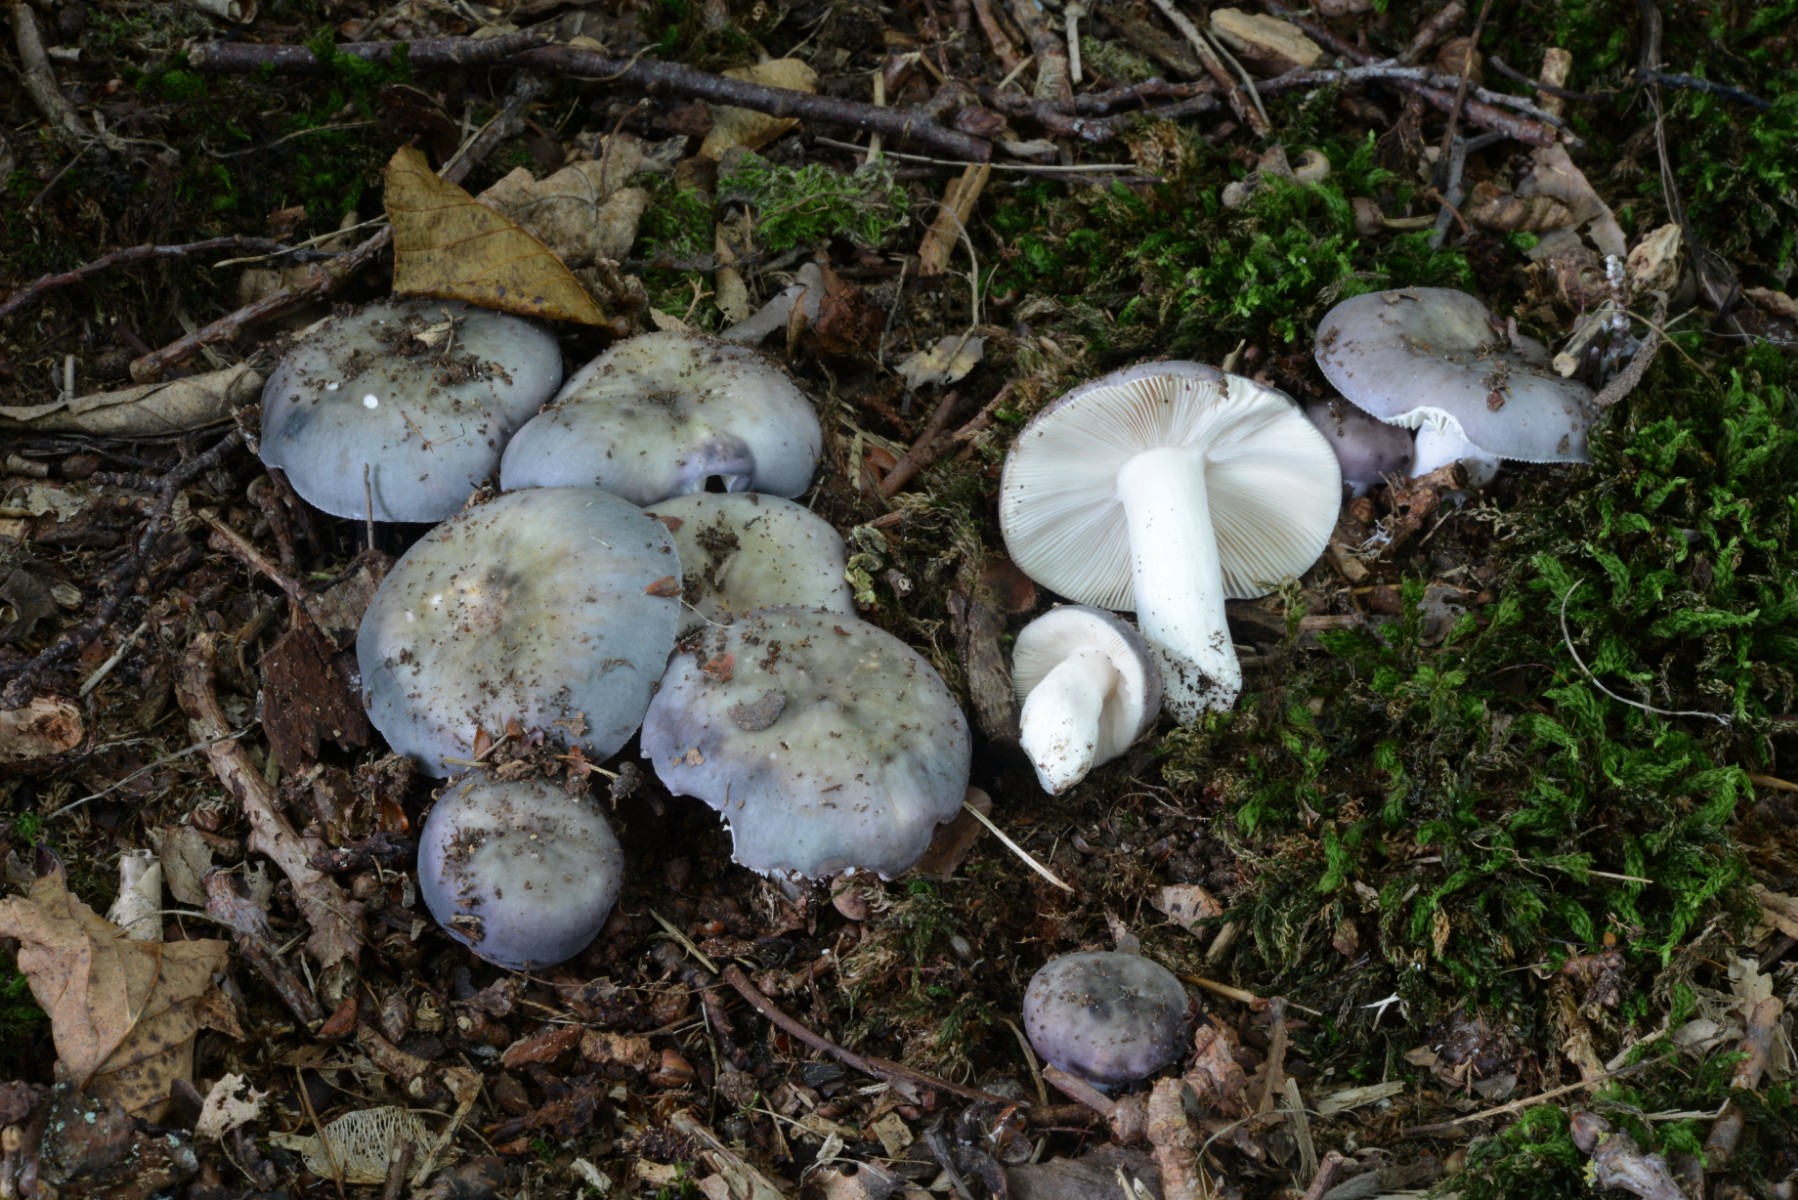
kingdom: Fungi
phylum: Basidiomycota
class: Agaricomycetes
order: Russulales
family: Russulaceae
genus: Russula
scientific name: Russula ionochlora
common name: violetgrøn skørhat
